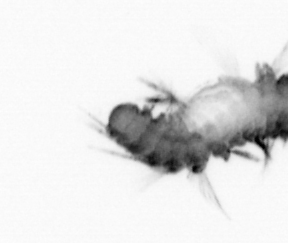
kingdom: Animalia
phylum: Annelida
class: Polychaeta
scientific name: Polychaeta
